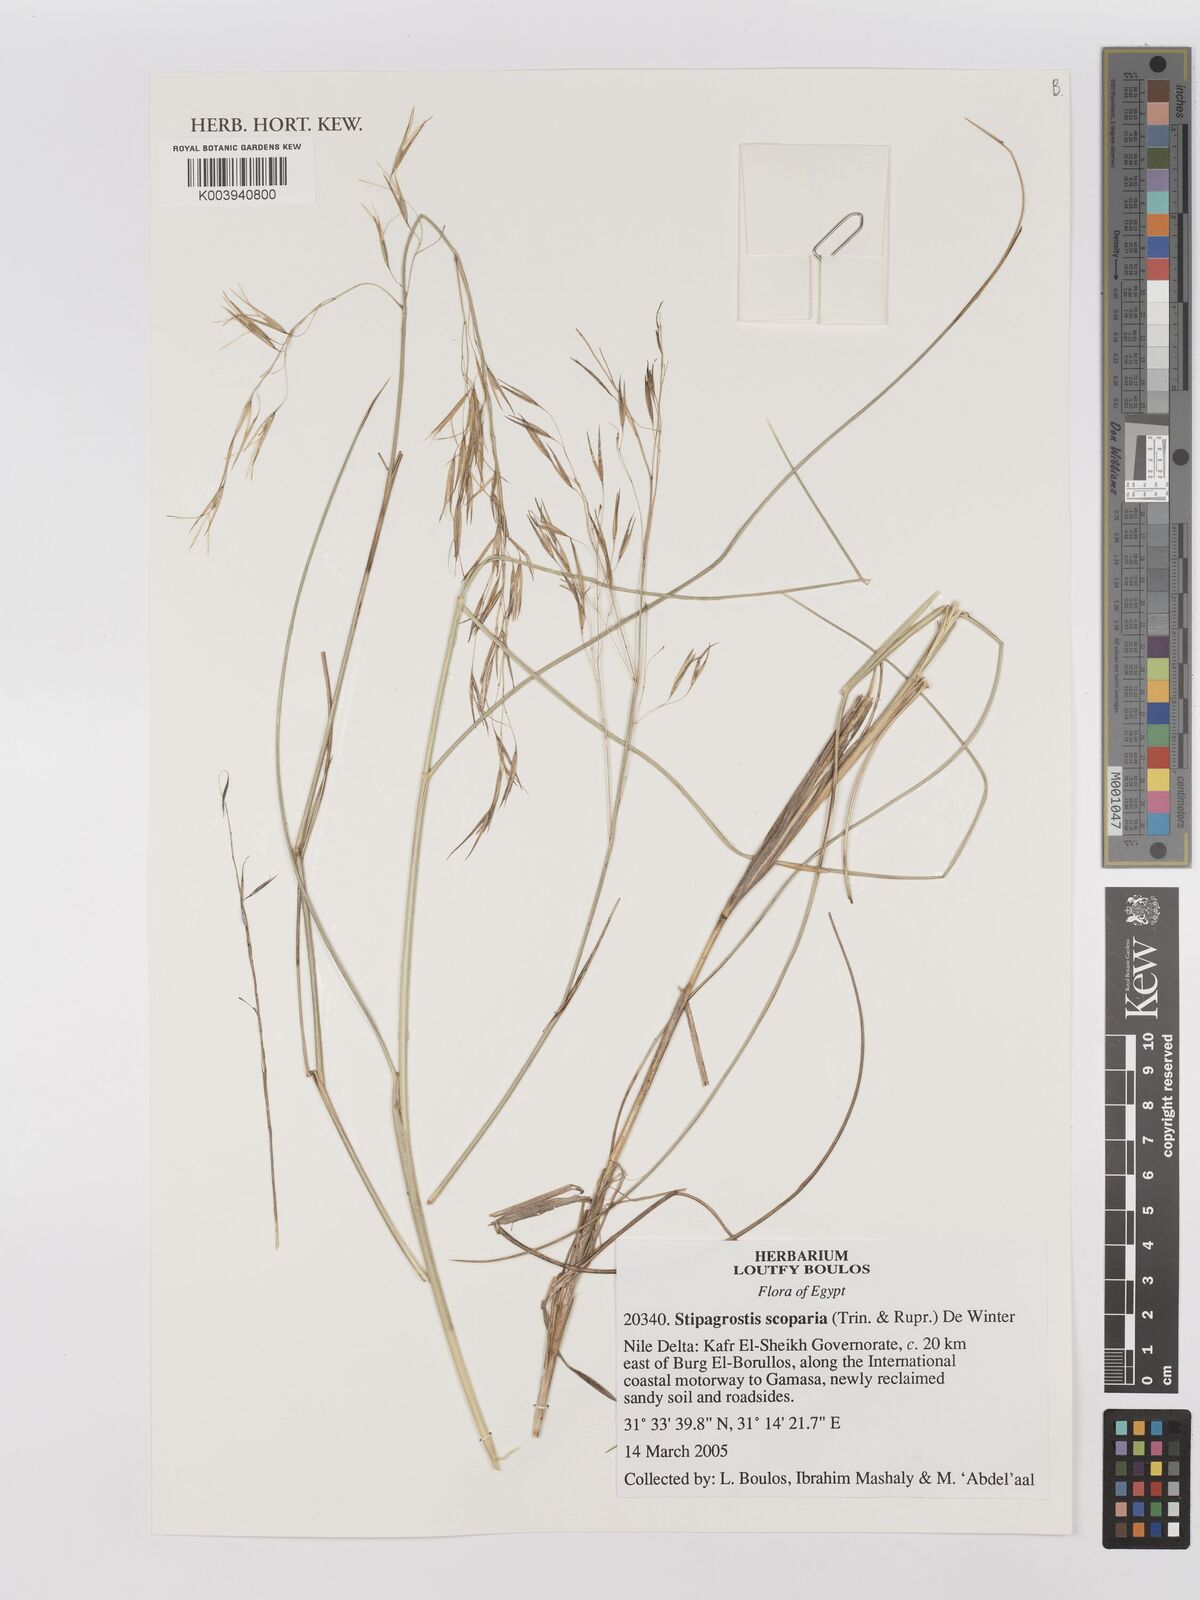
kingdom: Plantae
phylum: Tracheophyta
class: Liliopsida
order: Poales
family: Poaceae
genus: Stipagrostis
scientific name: Stipagrostis scoparia
